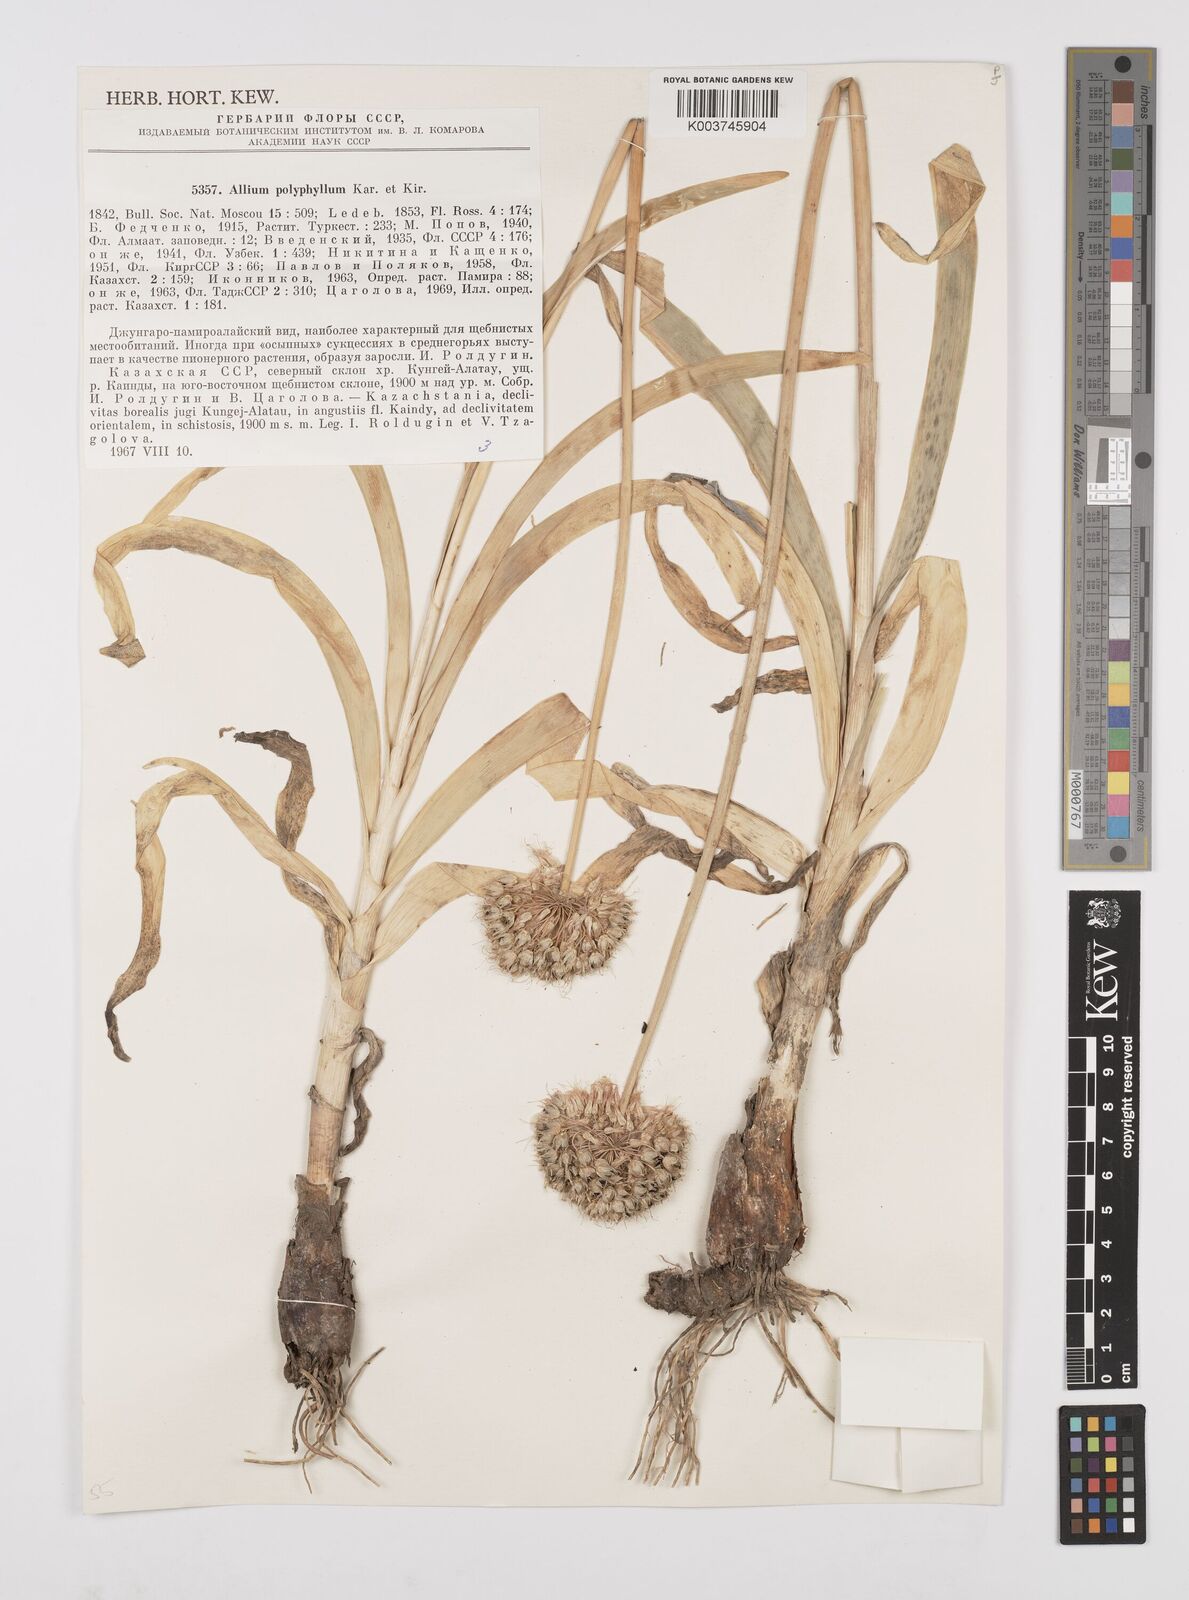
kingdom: Plantae
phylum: Tracheophyta
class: Liliopsida
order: Asparagales
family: Amaryllidaceae
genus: Allium
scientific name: Allium carolinianum
